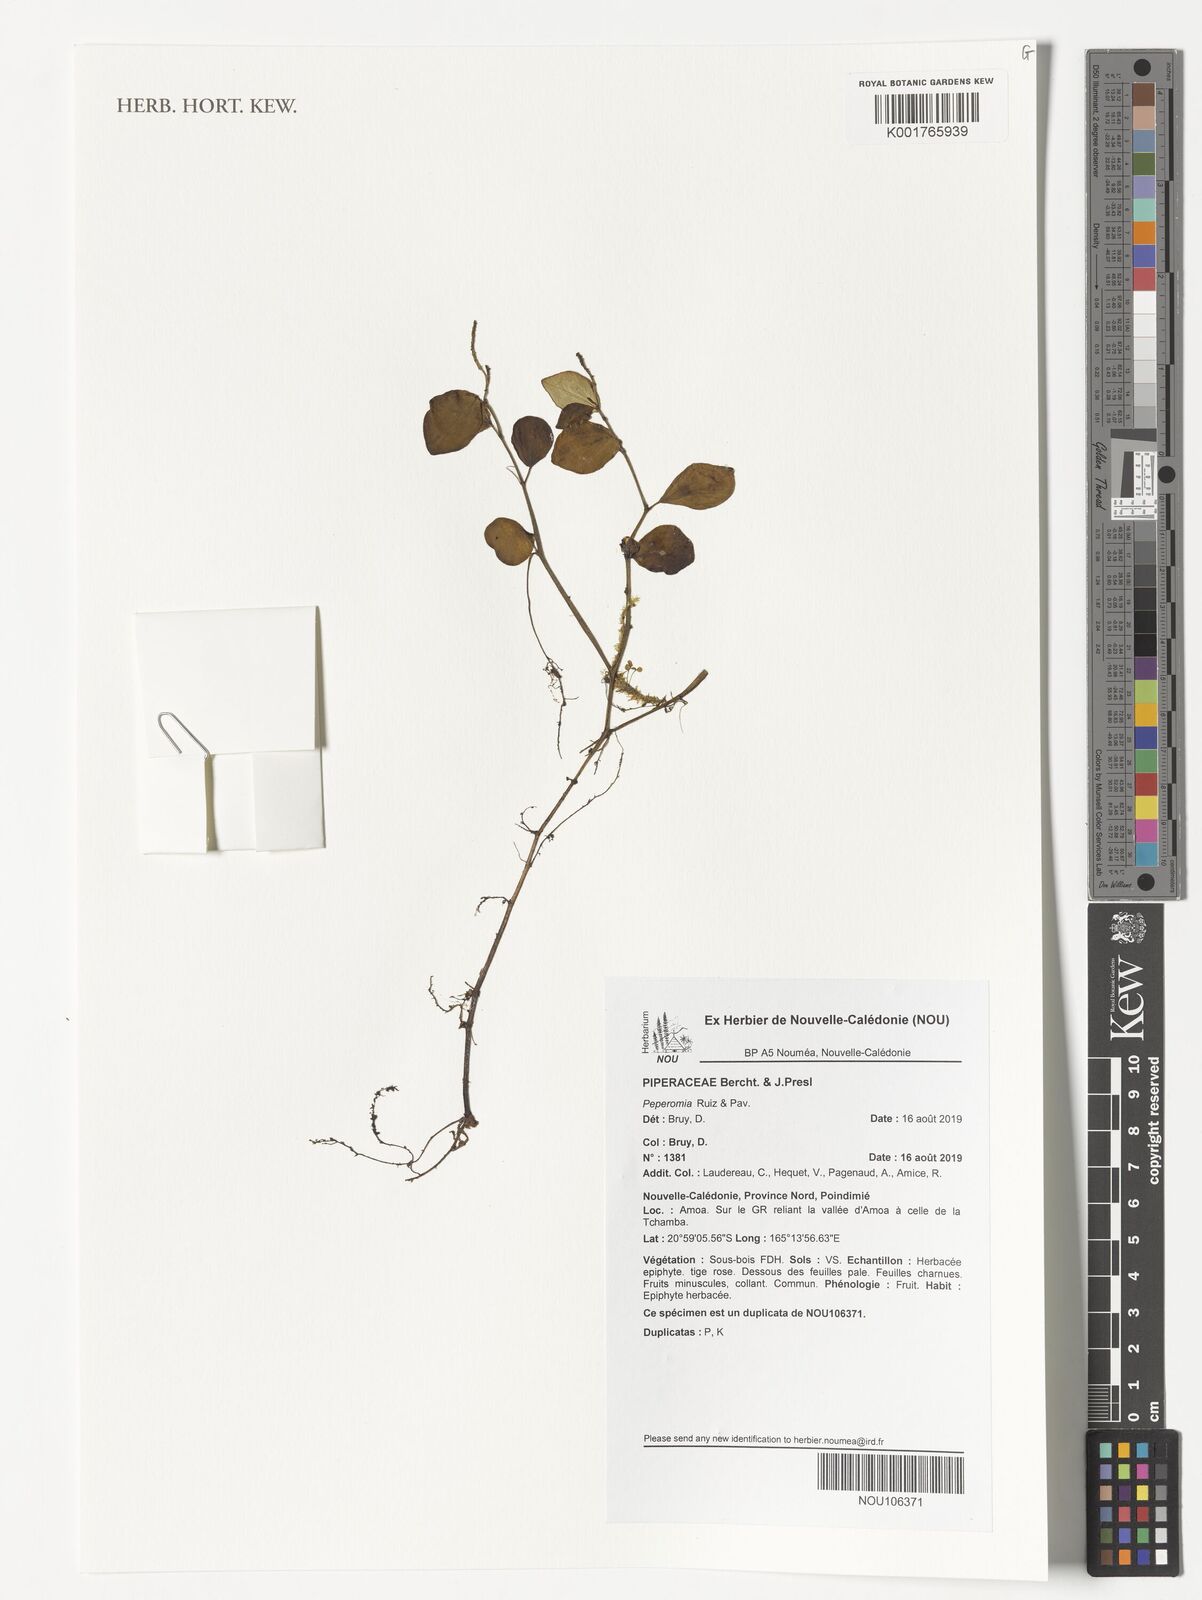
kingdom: Plantae
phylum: Tracheophyta
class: Magnoliopsida
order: Piperales
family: Piperaceae
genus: Peperomia
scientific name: Peperomia
